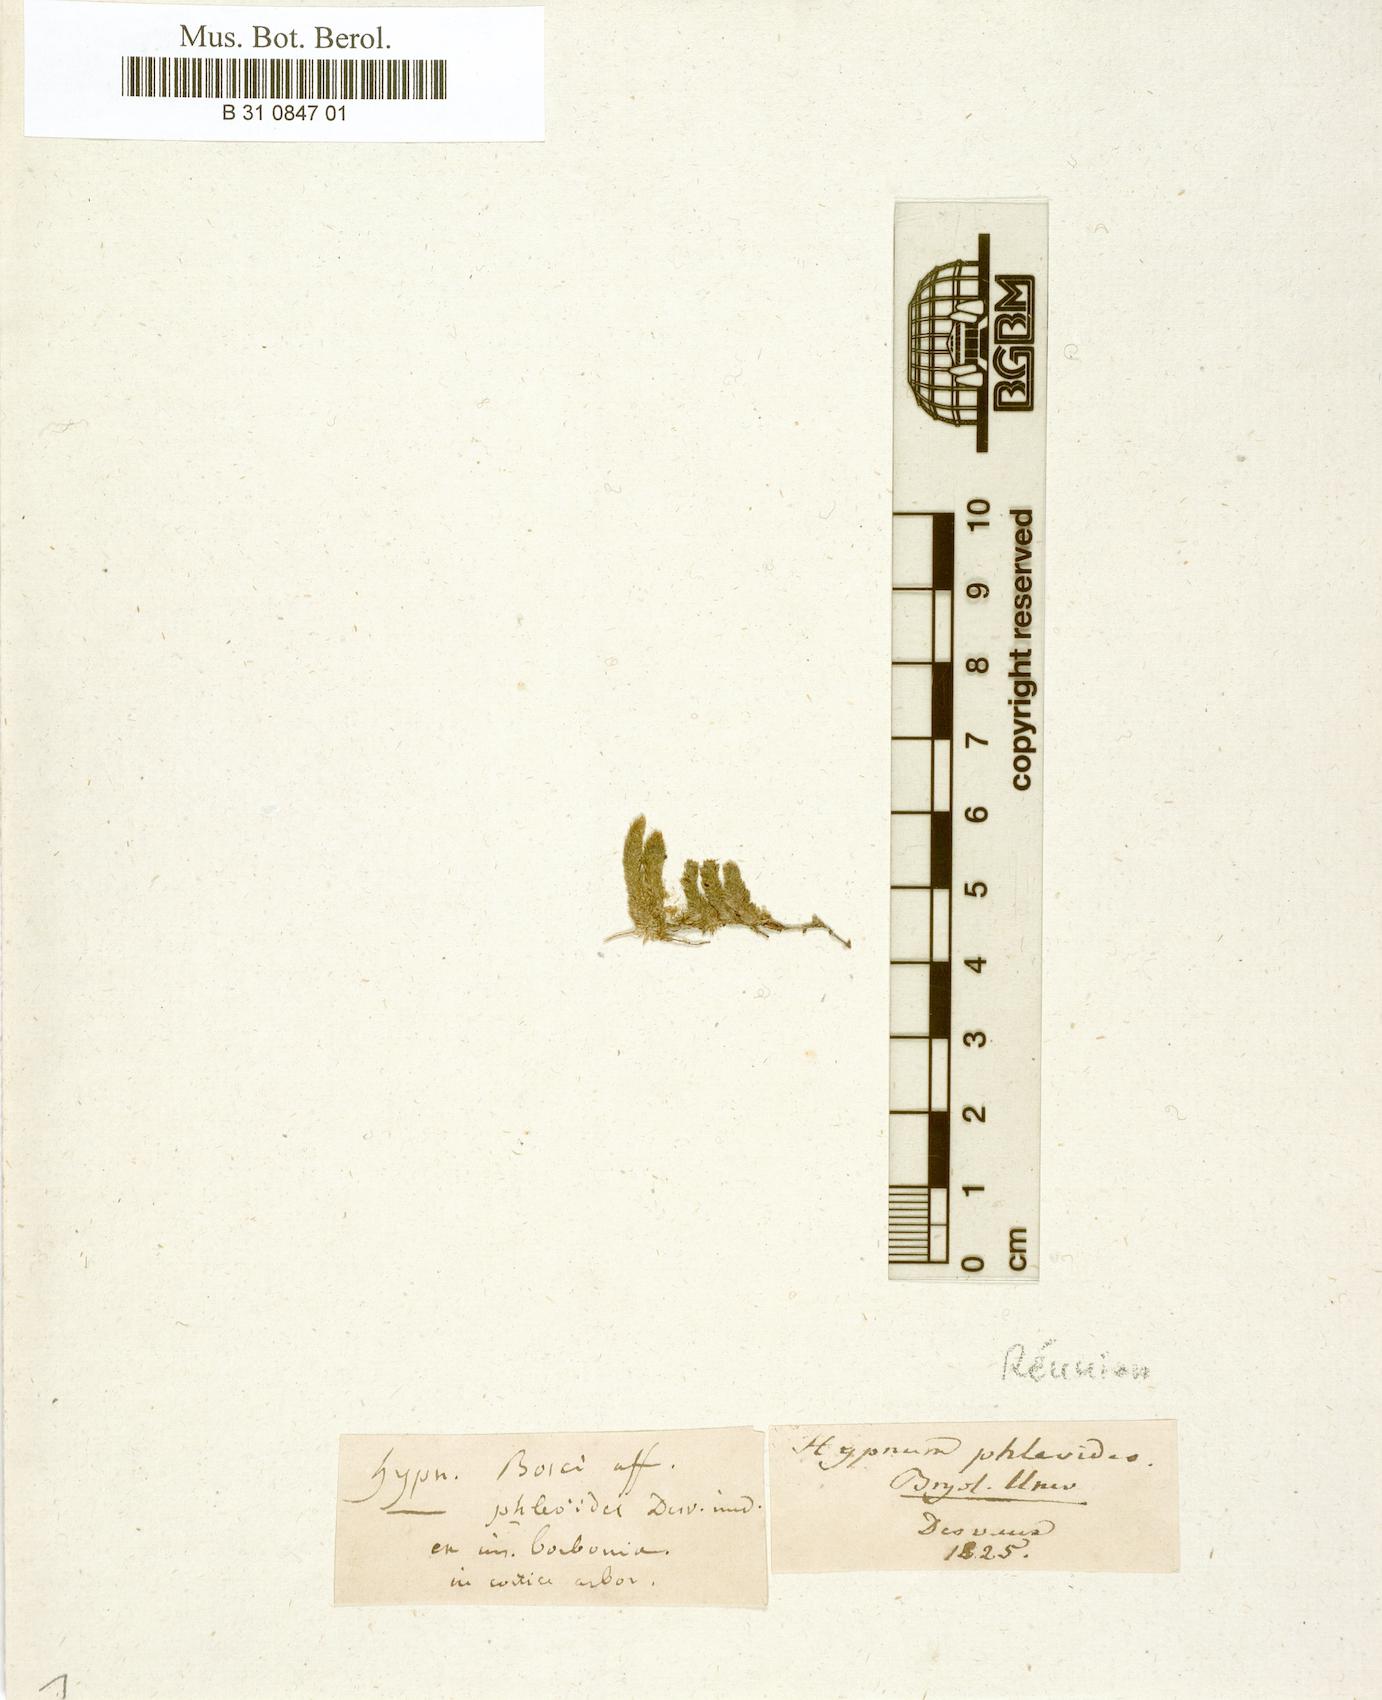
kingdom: Plantae
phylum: Bryophyta
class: Bryopsida
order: Hypnales
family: Pterobryaceae
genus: Hildebrandtiella
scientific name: Hildebrandtiella phleoides
